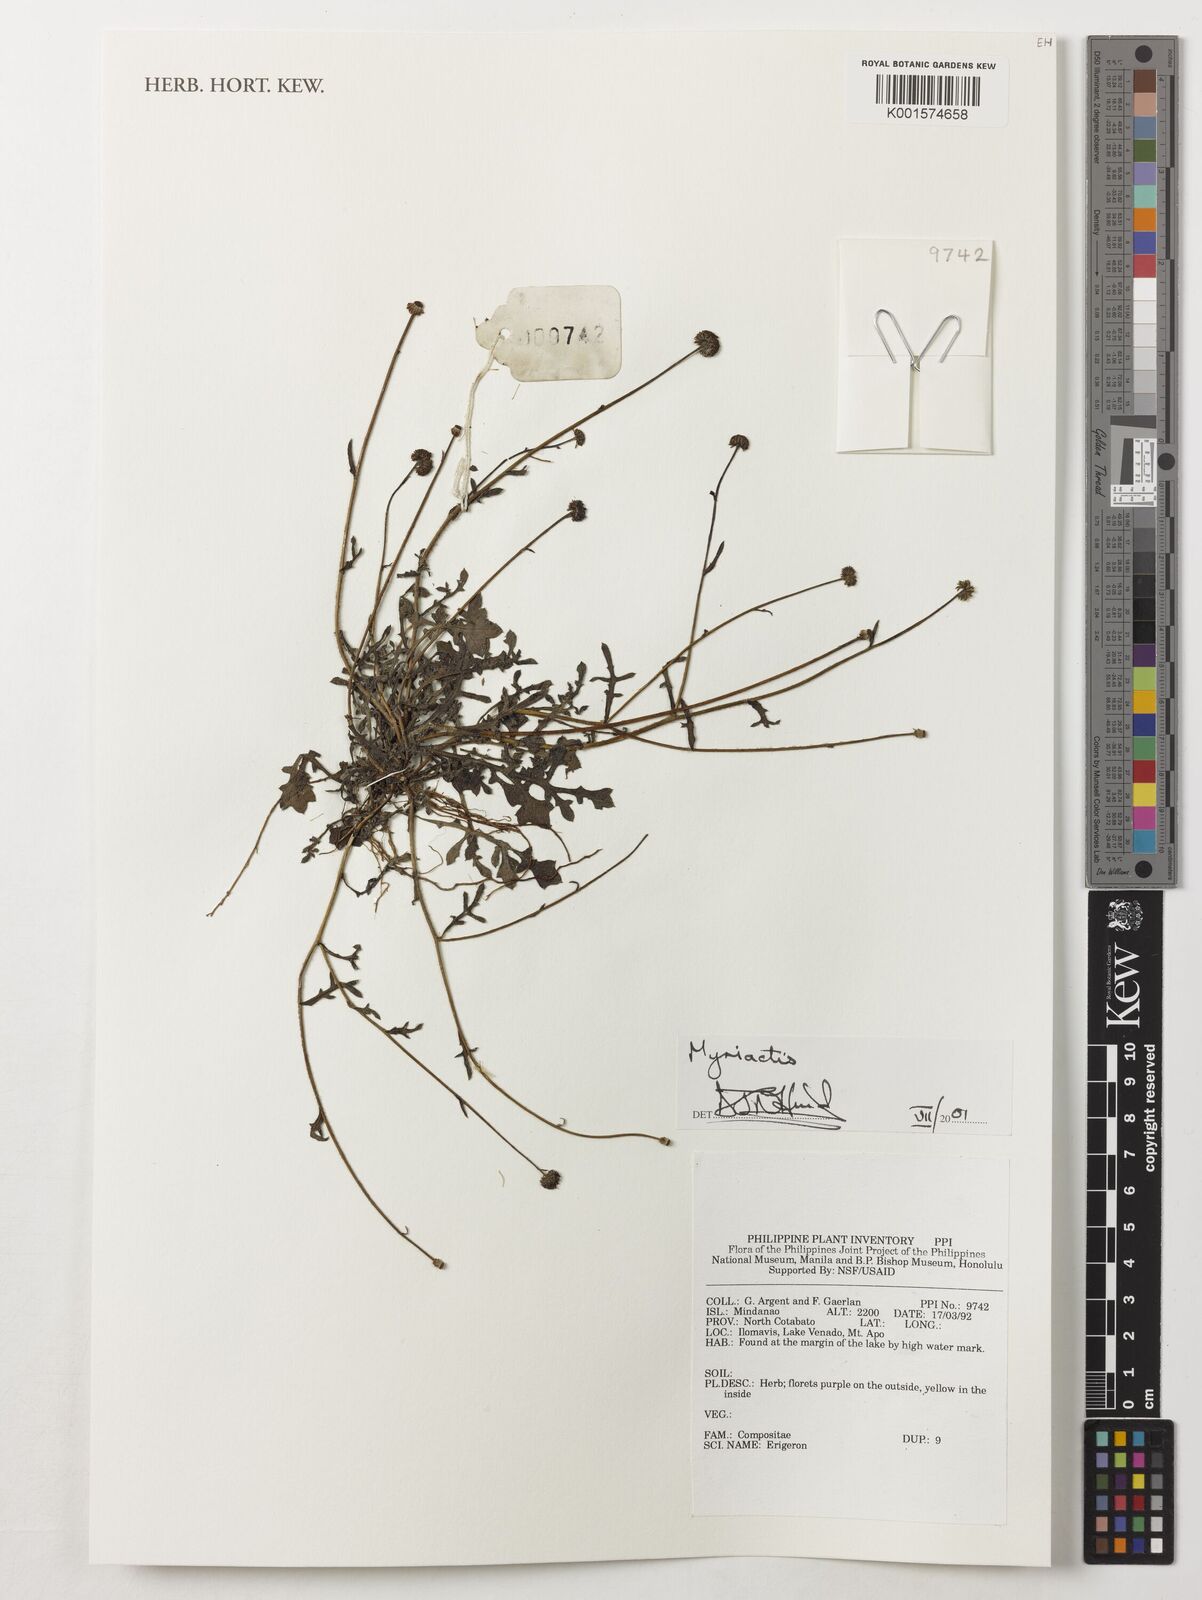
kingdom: Plantae
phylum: Tracheophyta
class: Magnoliopsida
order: Asterales
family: Asteraceae
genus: Myriactis
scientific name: Myriactis
